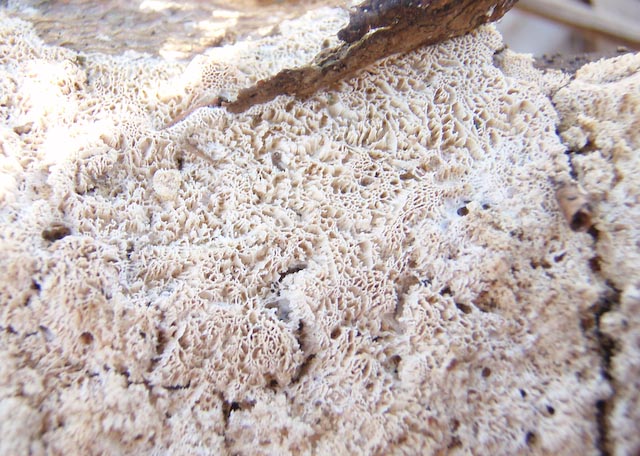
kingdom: Fungi
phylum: Basidiomycota
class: Agaricomycetes
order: Hymenochaetales
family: Schizoporaceae
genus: Xylodon
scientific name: Xylodon subtropicus
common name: labyrint-tandsvamp
